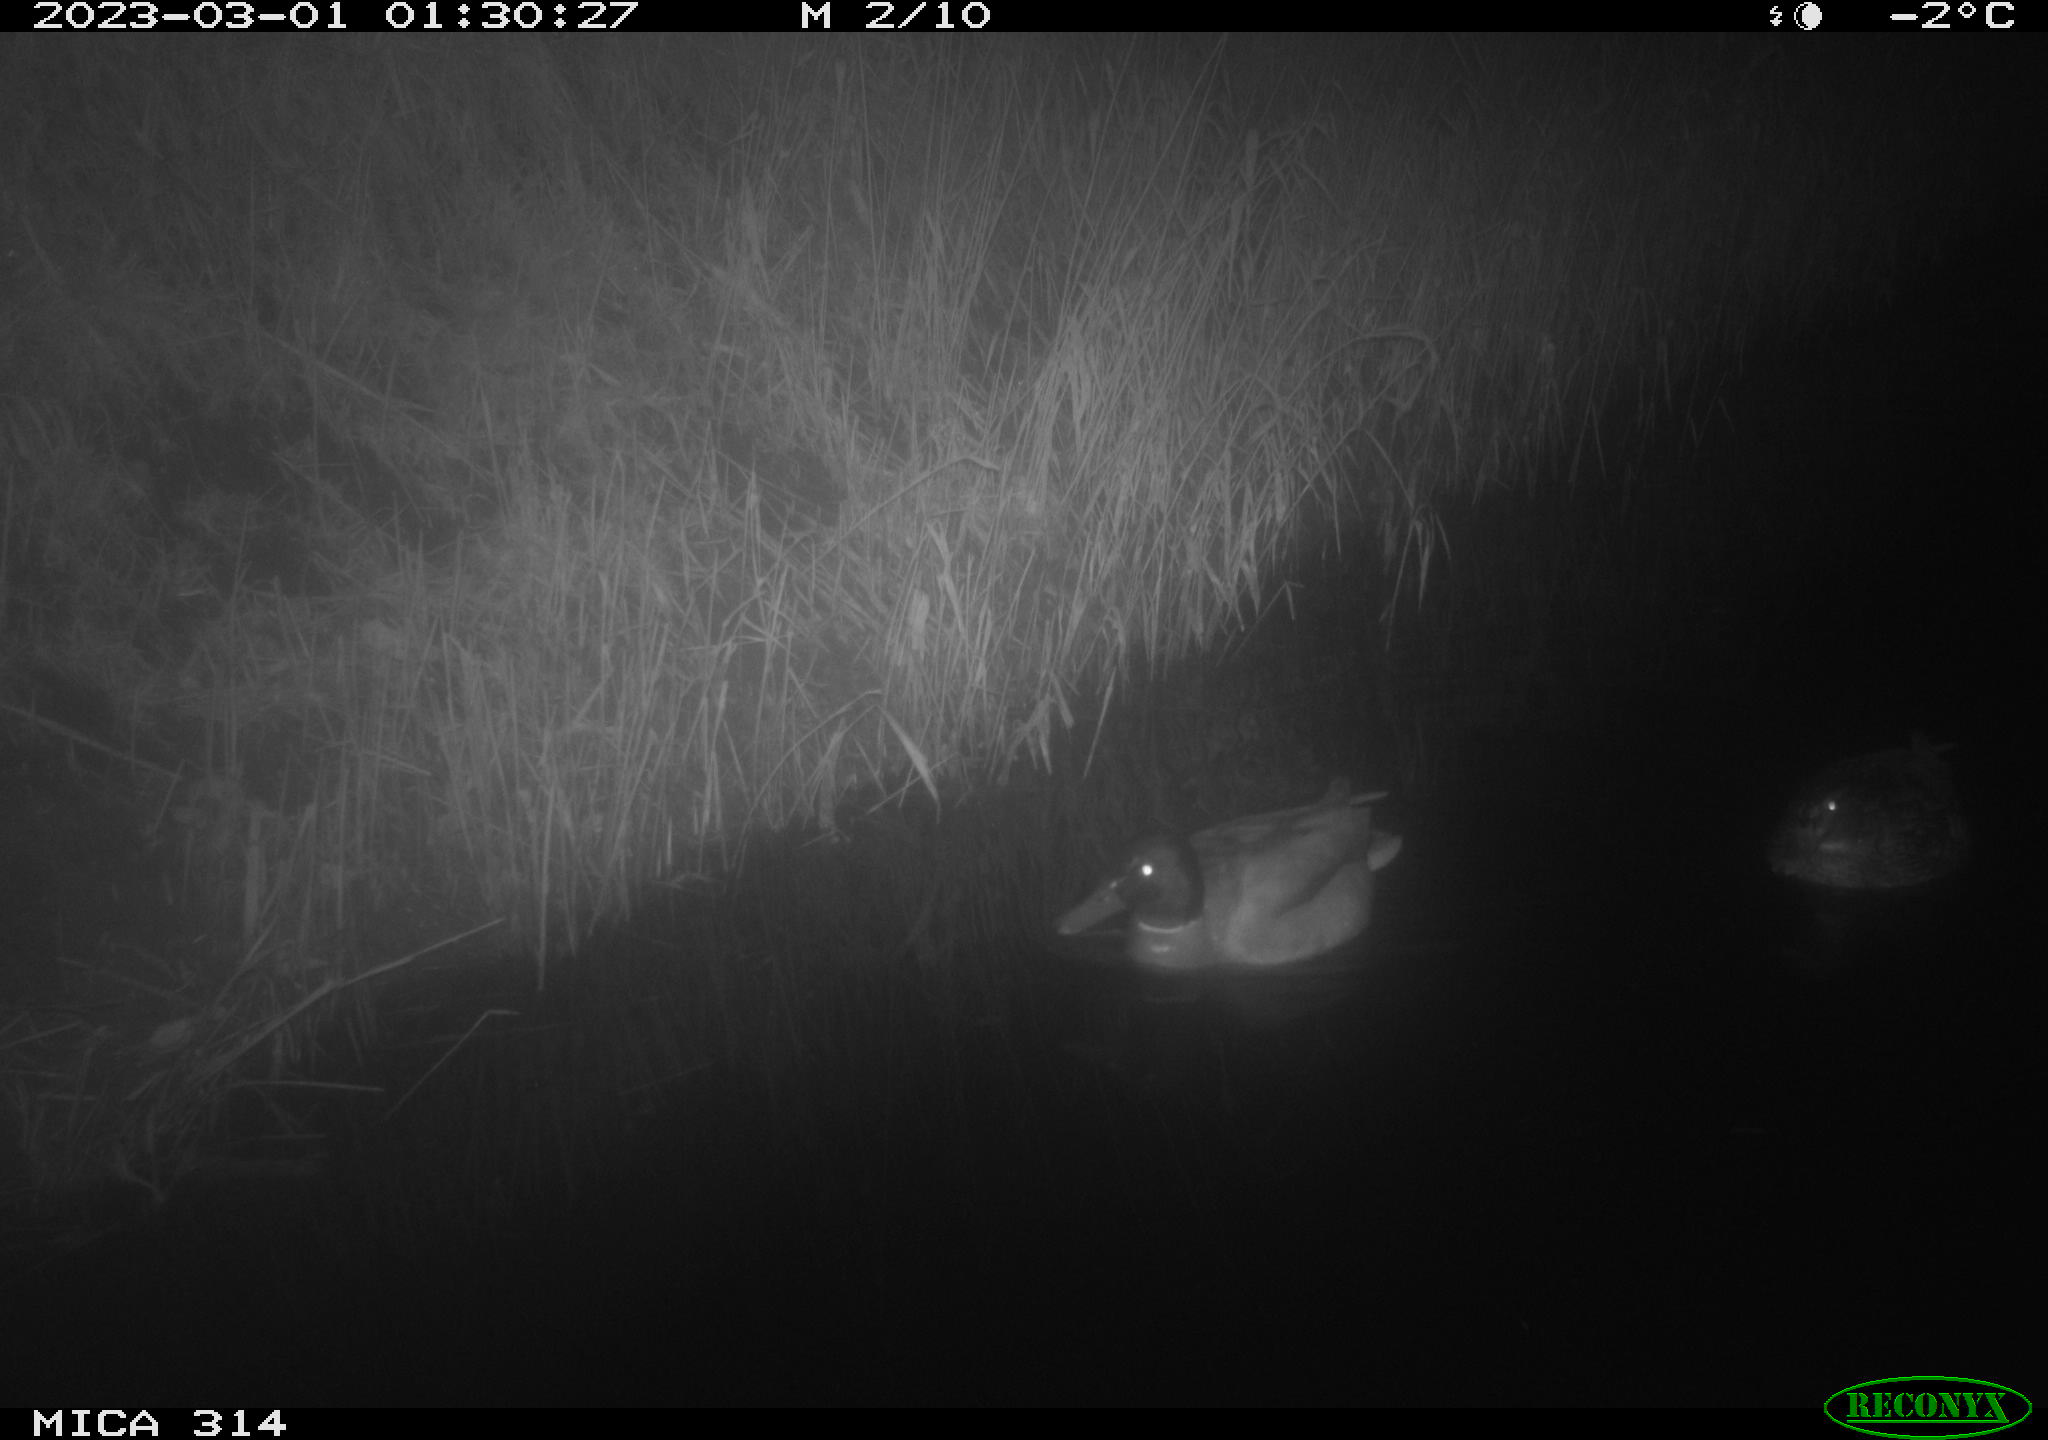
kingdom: Animalia
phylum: Chordata
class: Aves
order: Anseriformes
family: Anatidae
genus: Anas
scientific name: Anas
